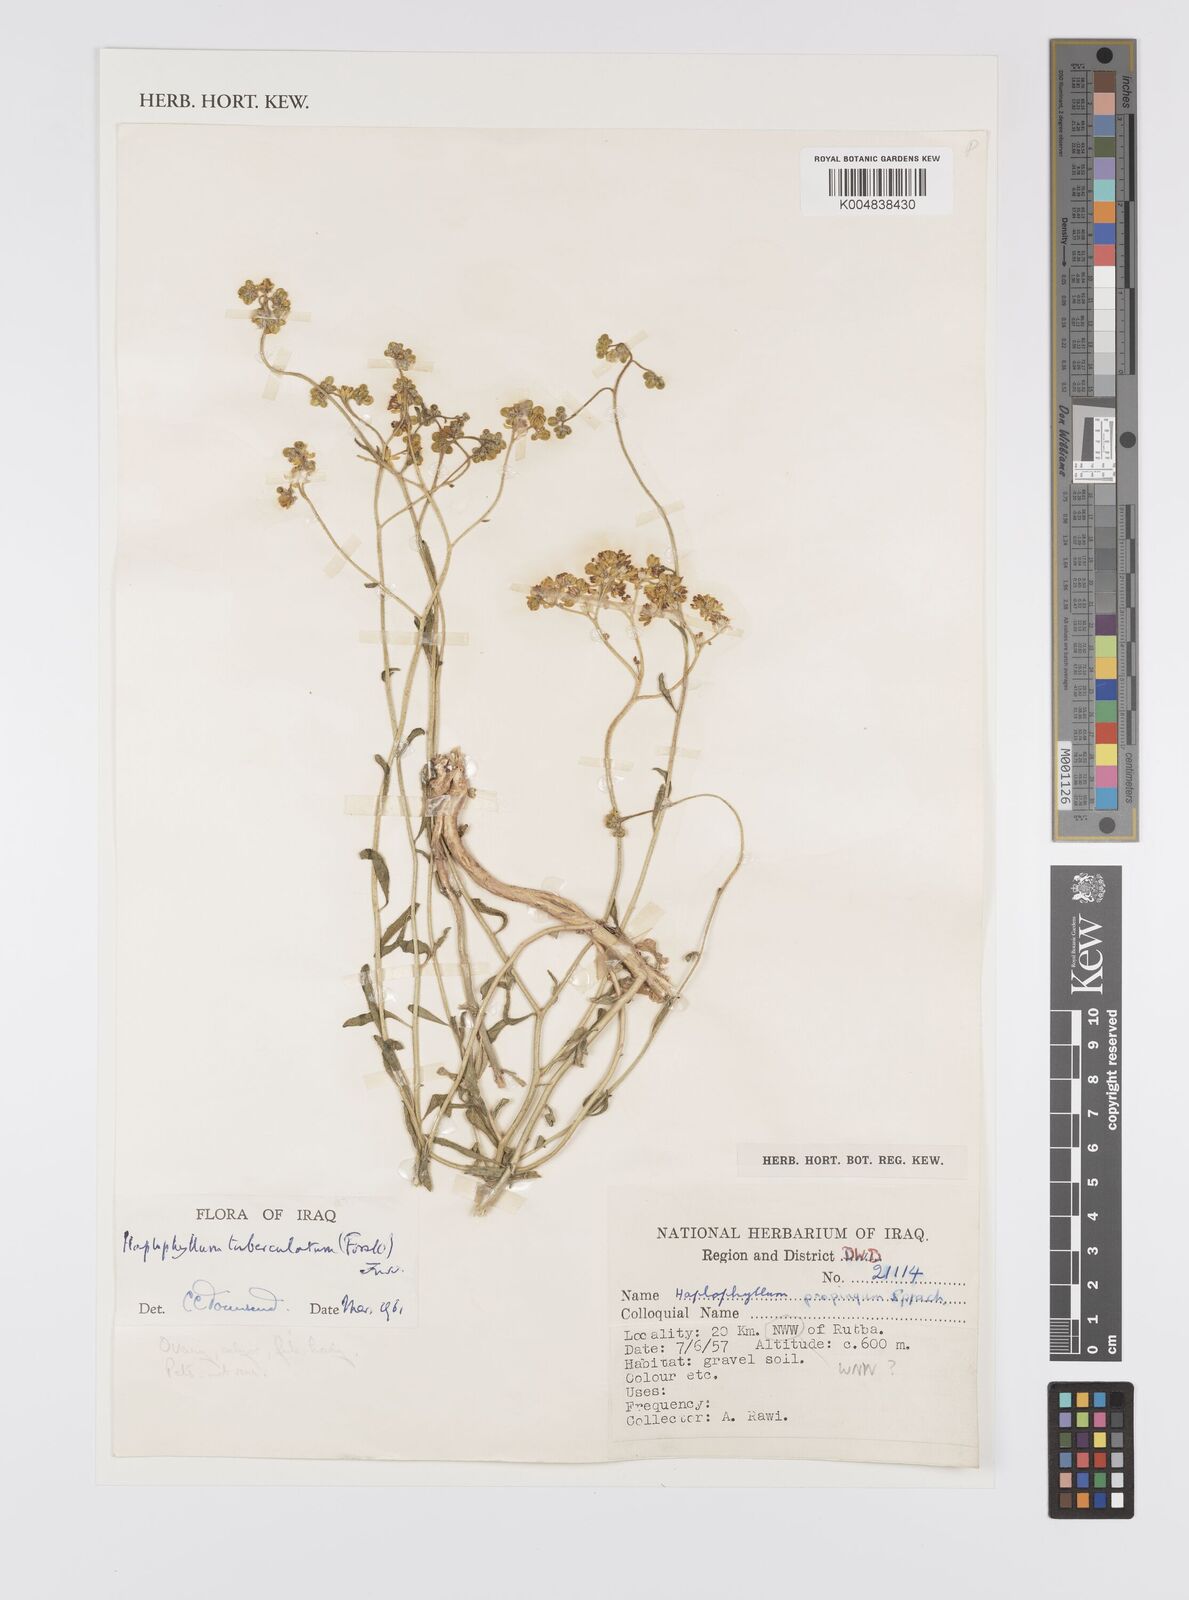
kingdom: Plantae
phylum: Tracheophyta
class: Magnoliopsida
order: Sapindales
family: Rutaceae
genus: Haplophyllum
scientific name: Haplophyllum tuberculatum
